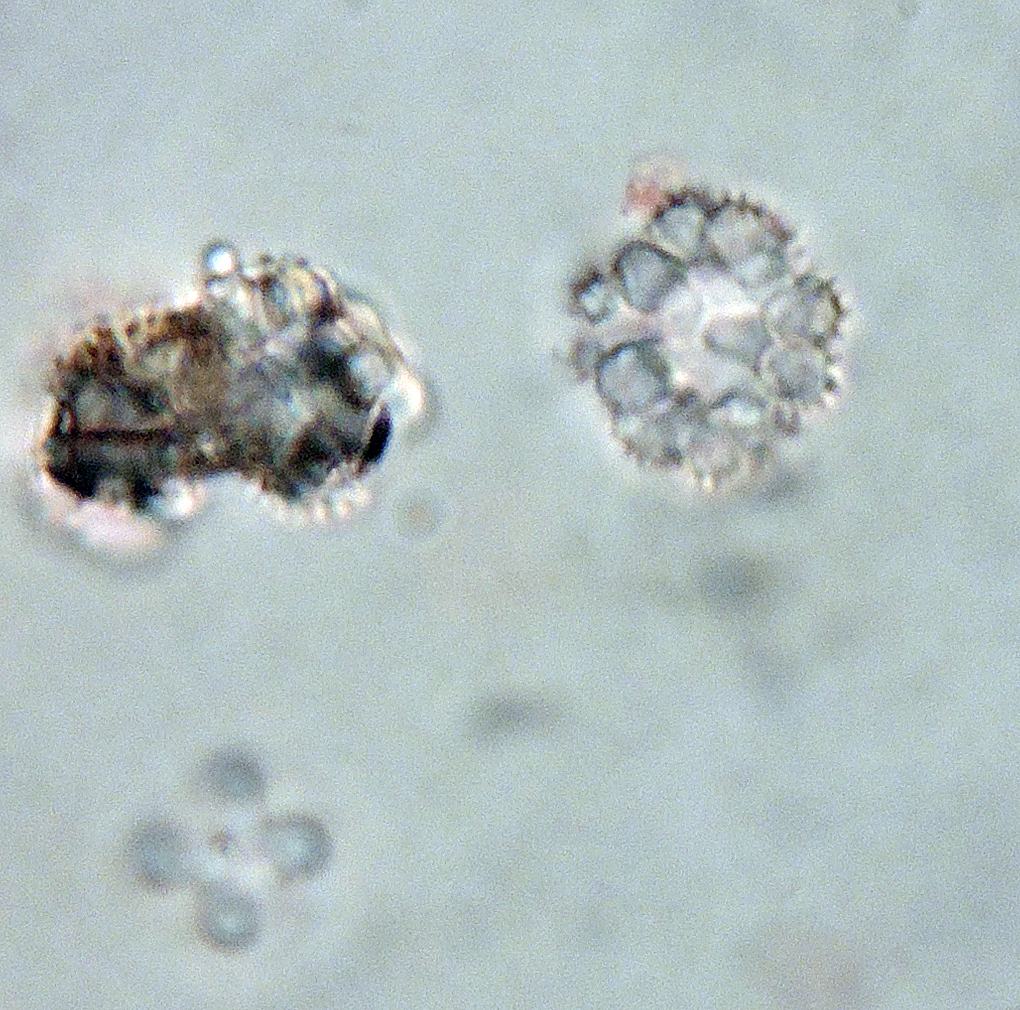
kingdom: Fungi
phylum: Ascomycota
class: Leotiomycetes
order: Helotiales
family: Hyaloscyphaceae
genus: Hyaloscypha
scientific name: Hyaloscypha spinulosa
